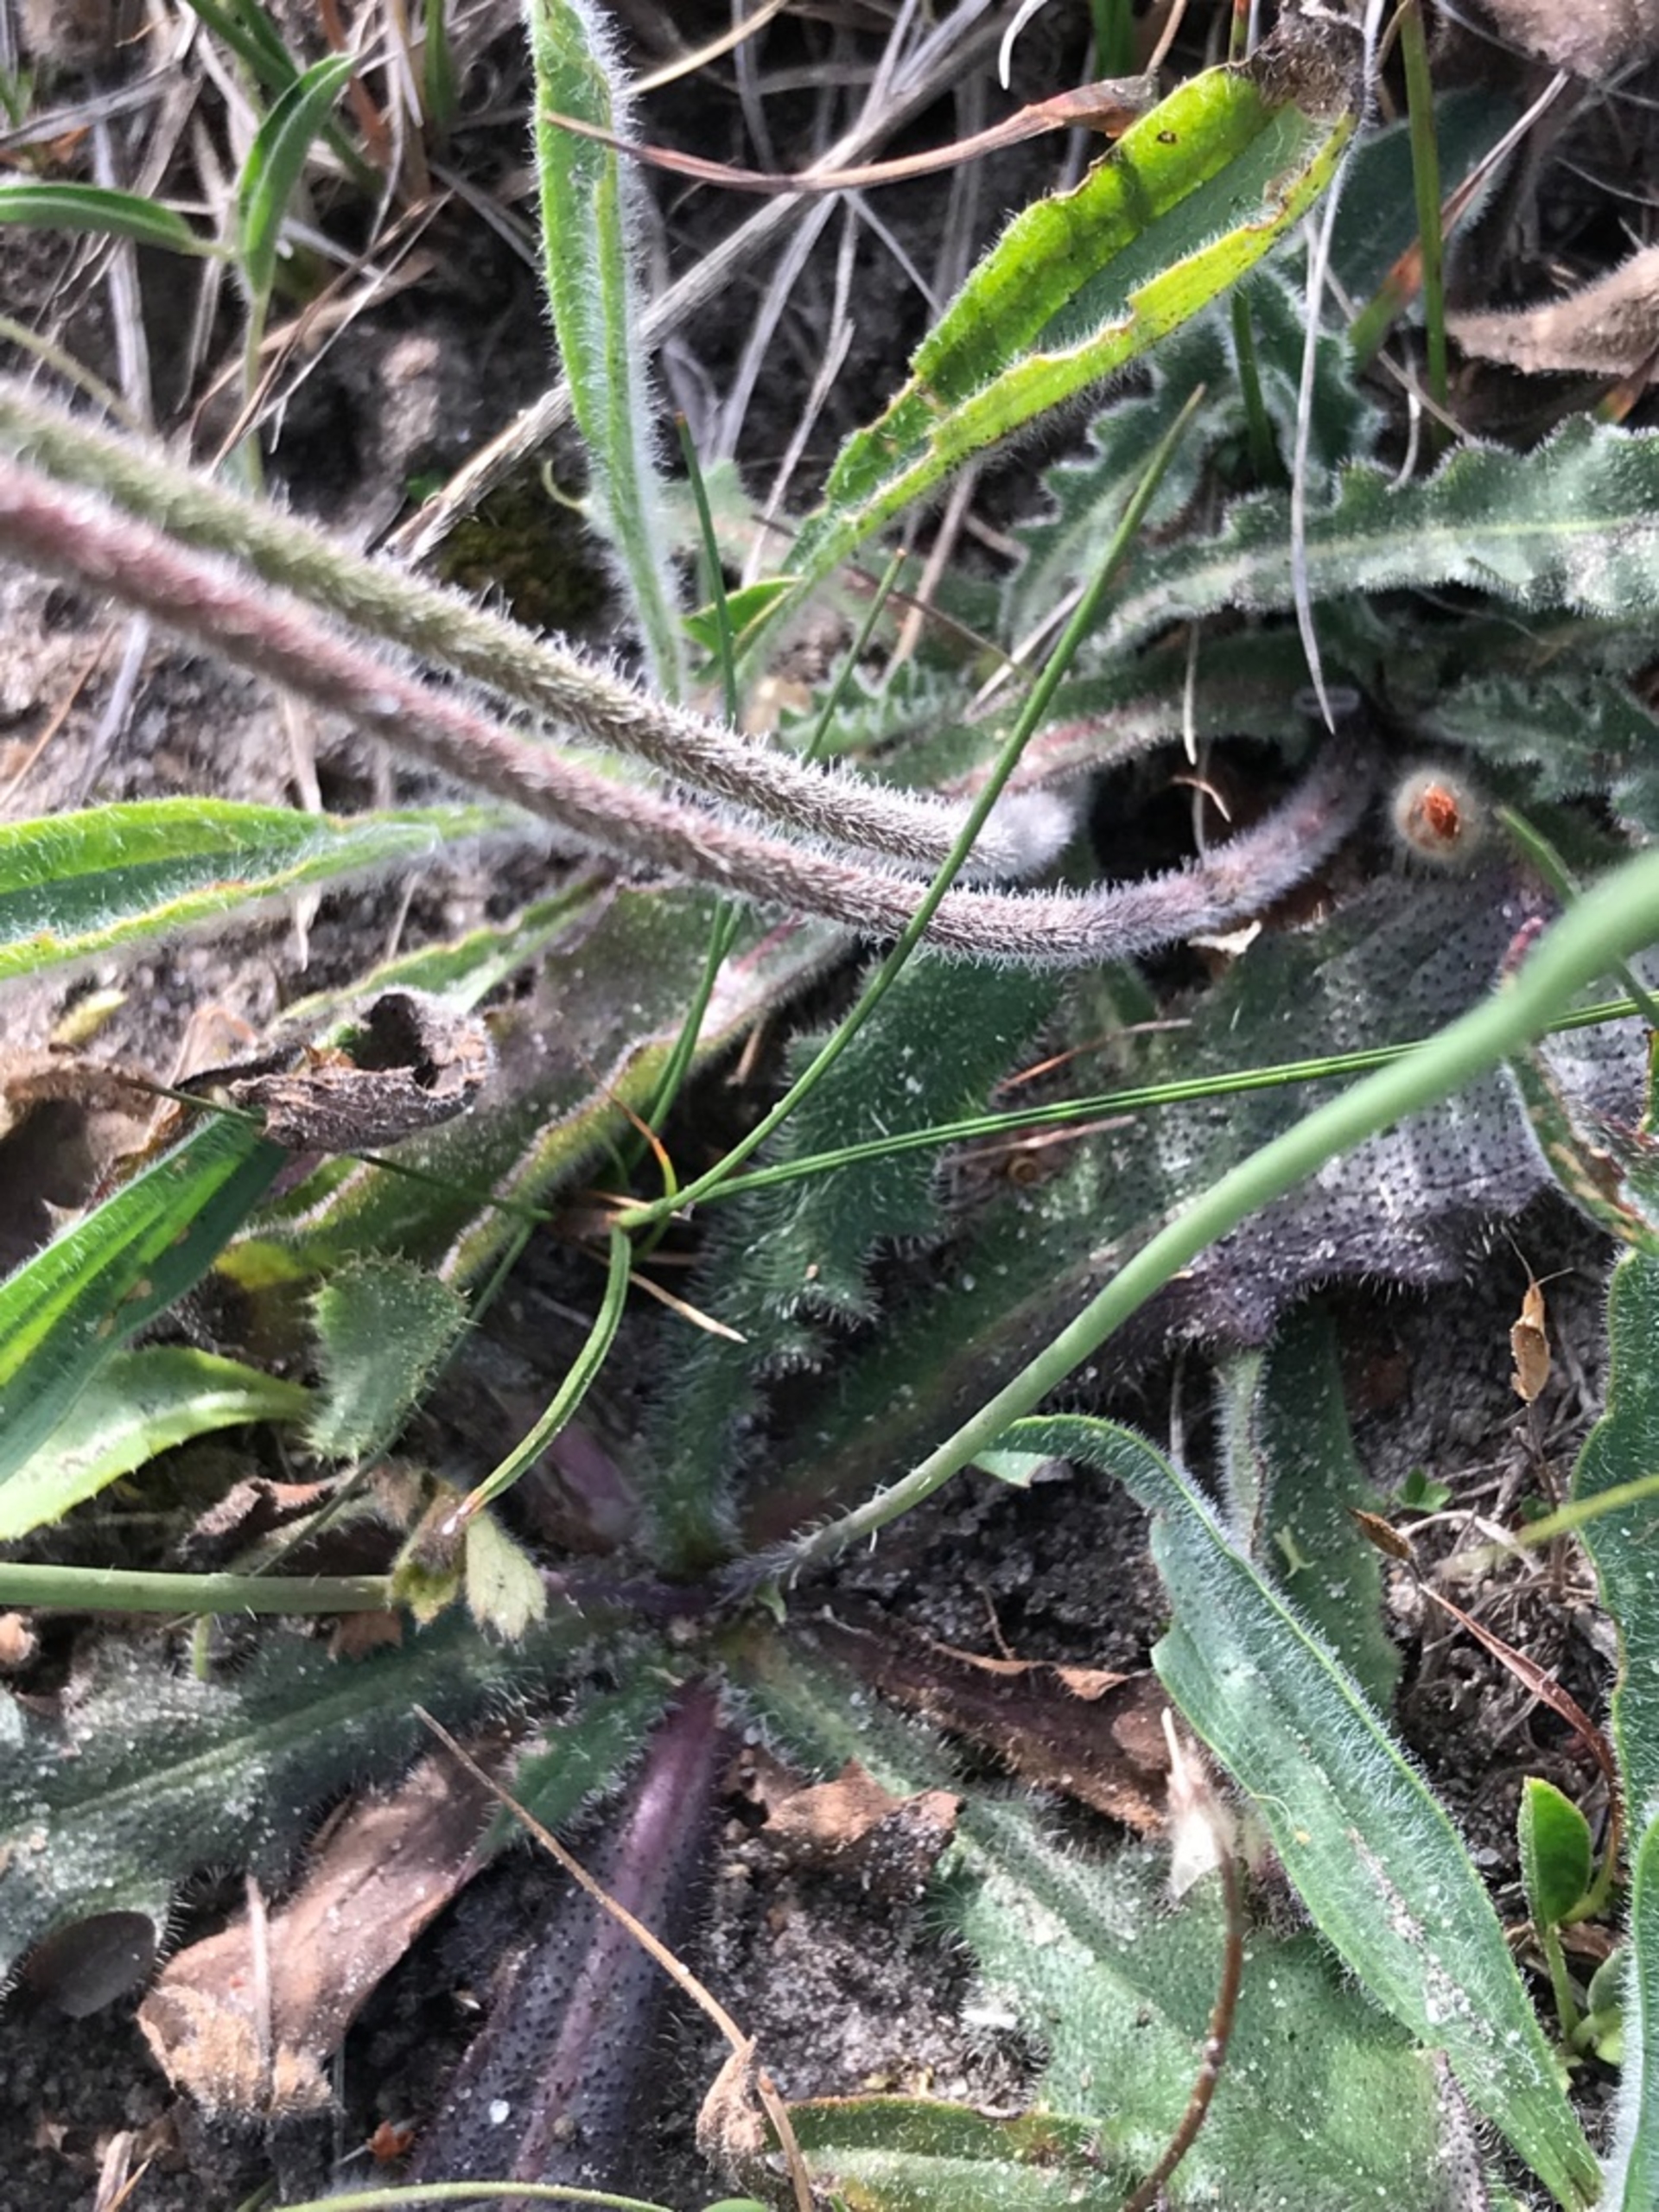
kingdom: Plantae
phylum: Tracheophyta
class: Magnoliopsida
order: Asterales
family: Asteraceae
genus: Leontodon
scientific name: Leontodon hispidus
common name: Stivhåret borst
